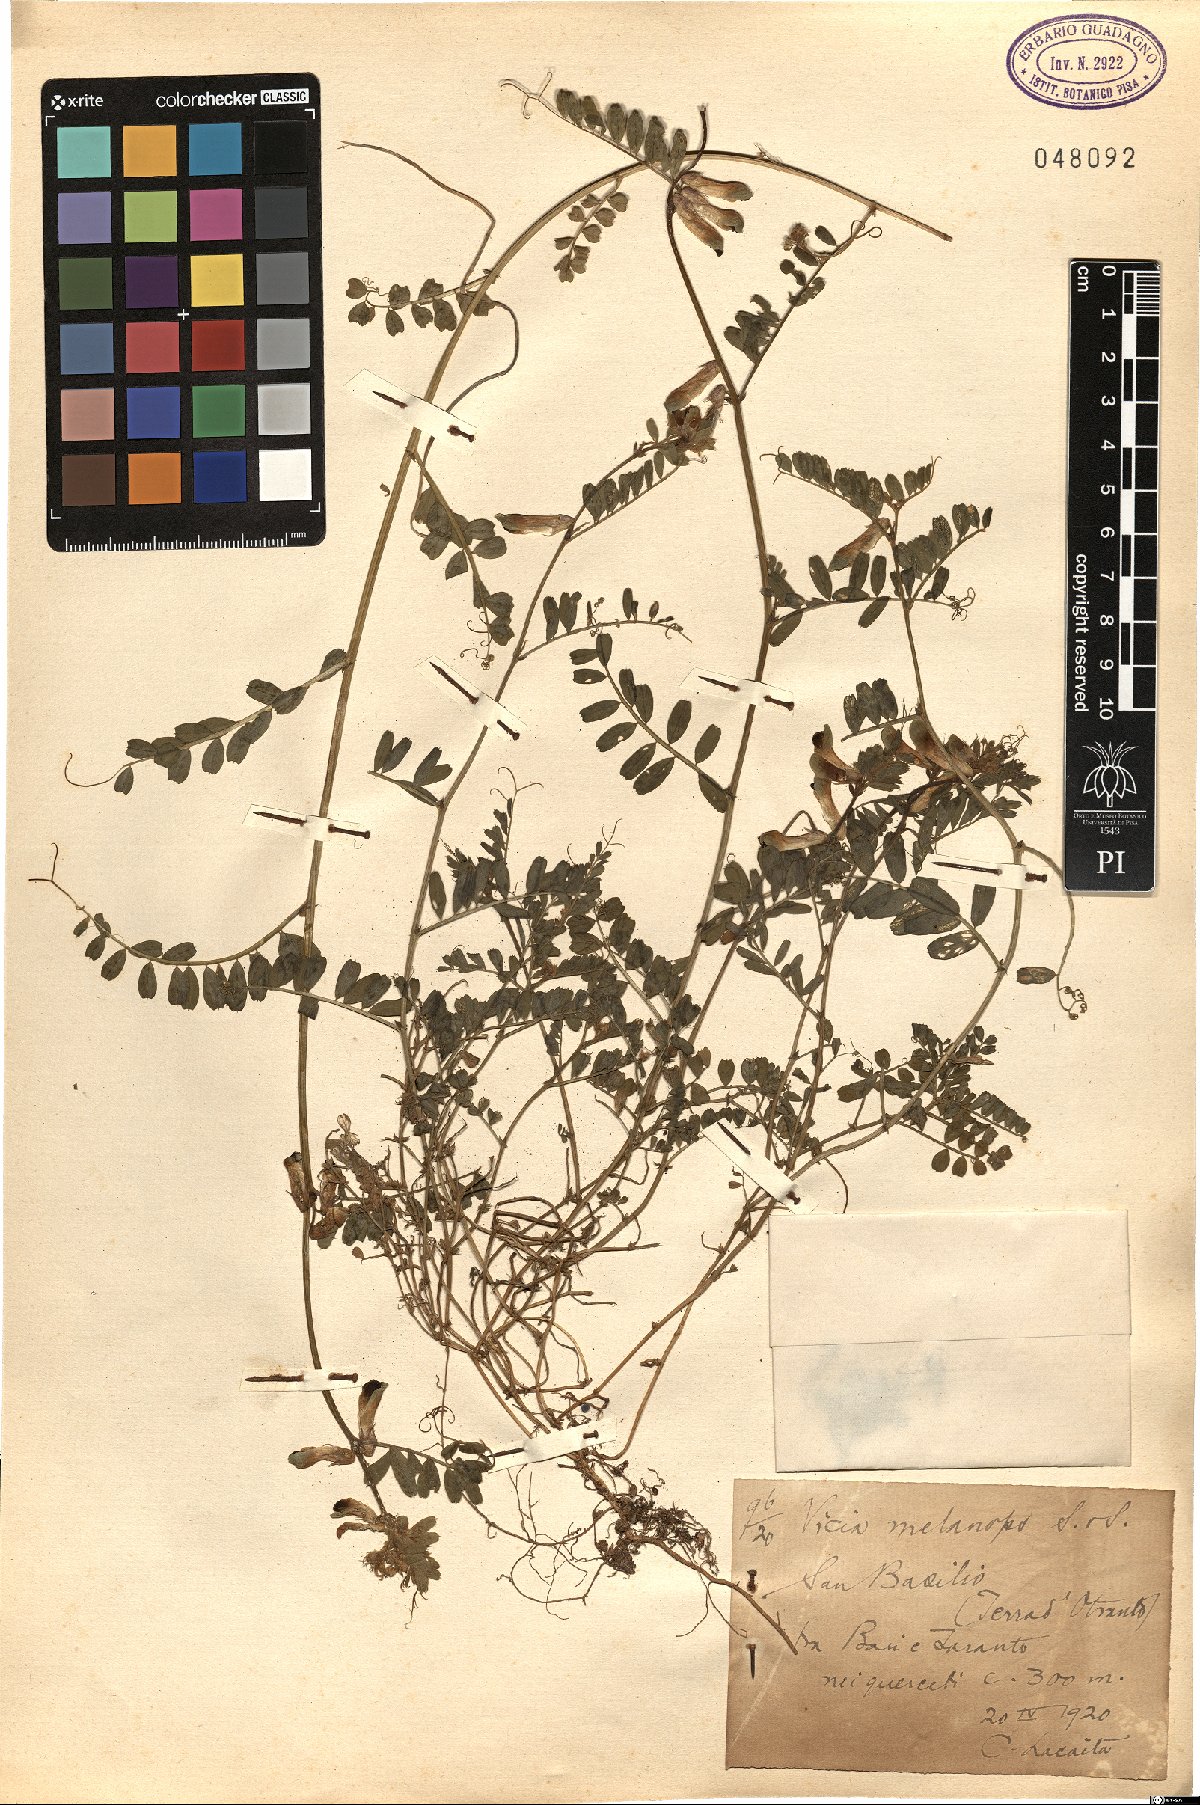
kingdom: Plantae
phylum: Tracheophyta
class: Magnoliopsida
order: Fabales
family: Fabaceae
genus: Vicia
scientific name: Vicia melanops
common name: Black-eyed vetch
